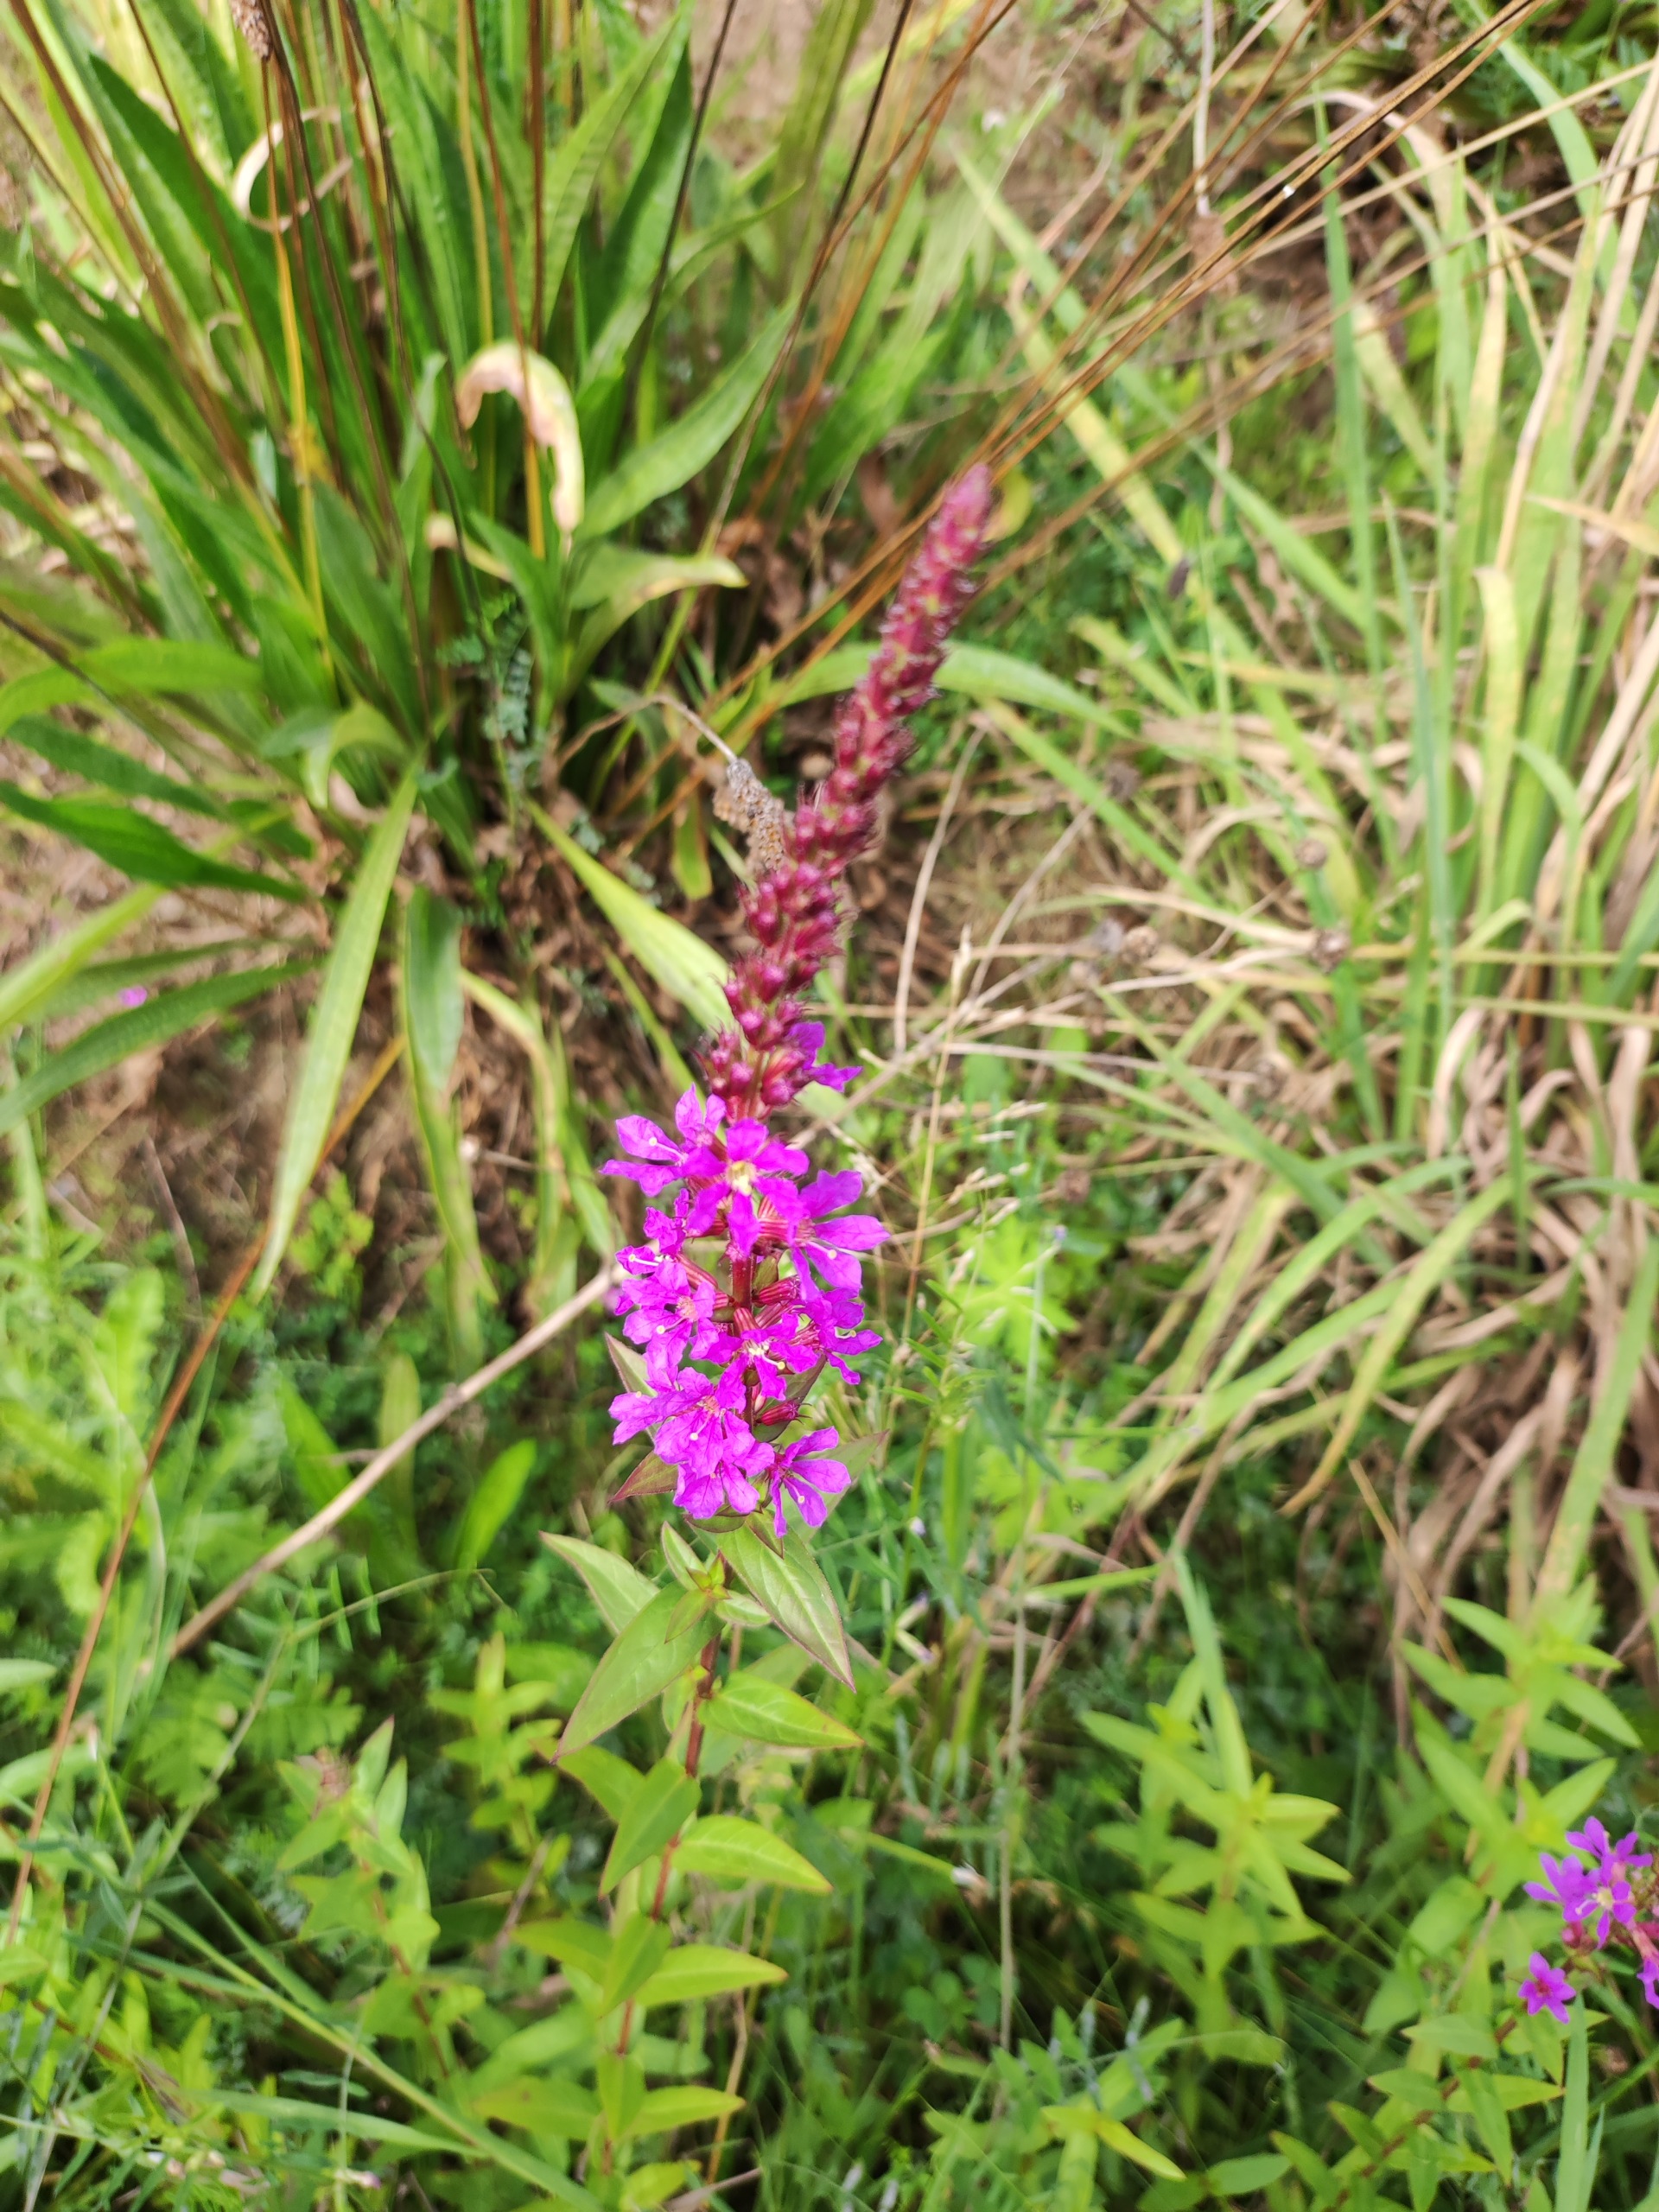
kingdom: Plantae
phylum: Tracheophyta
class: Magnoliopsida
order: Myrtales
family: Lythraceae
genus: Lythrum
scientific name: Lythrum salicaria
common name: Kattehale
